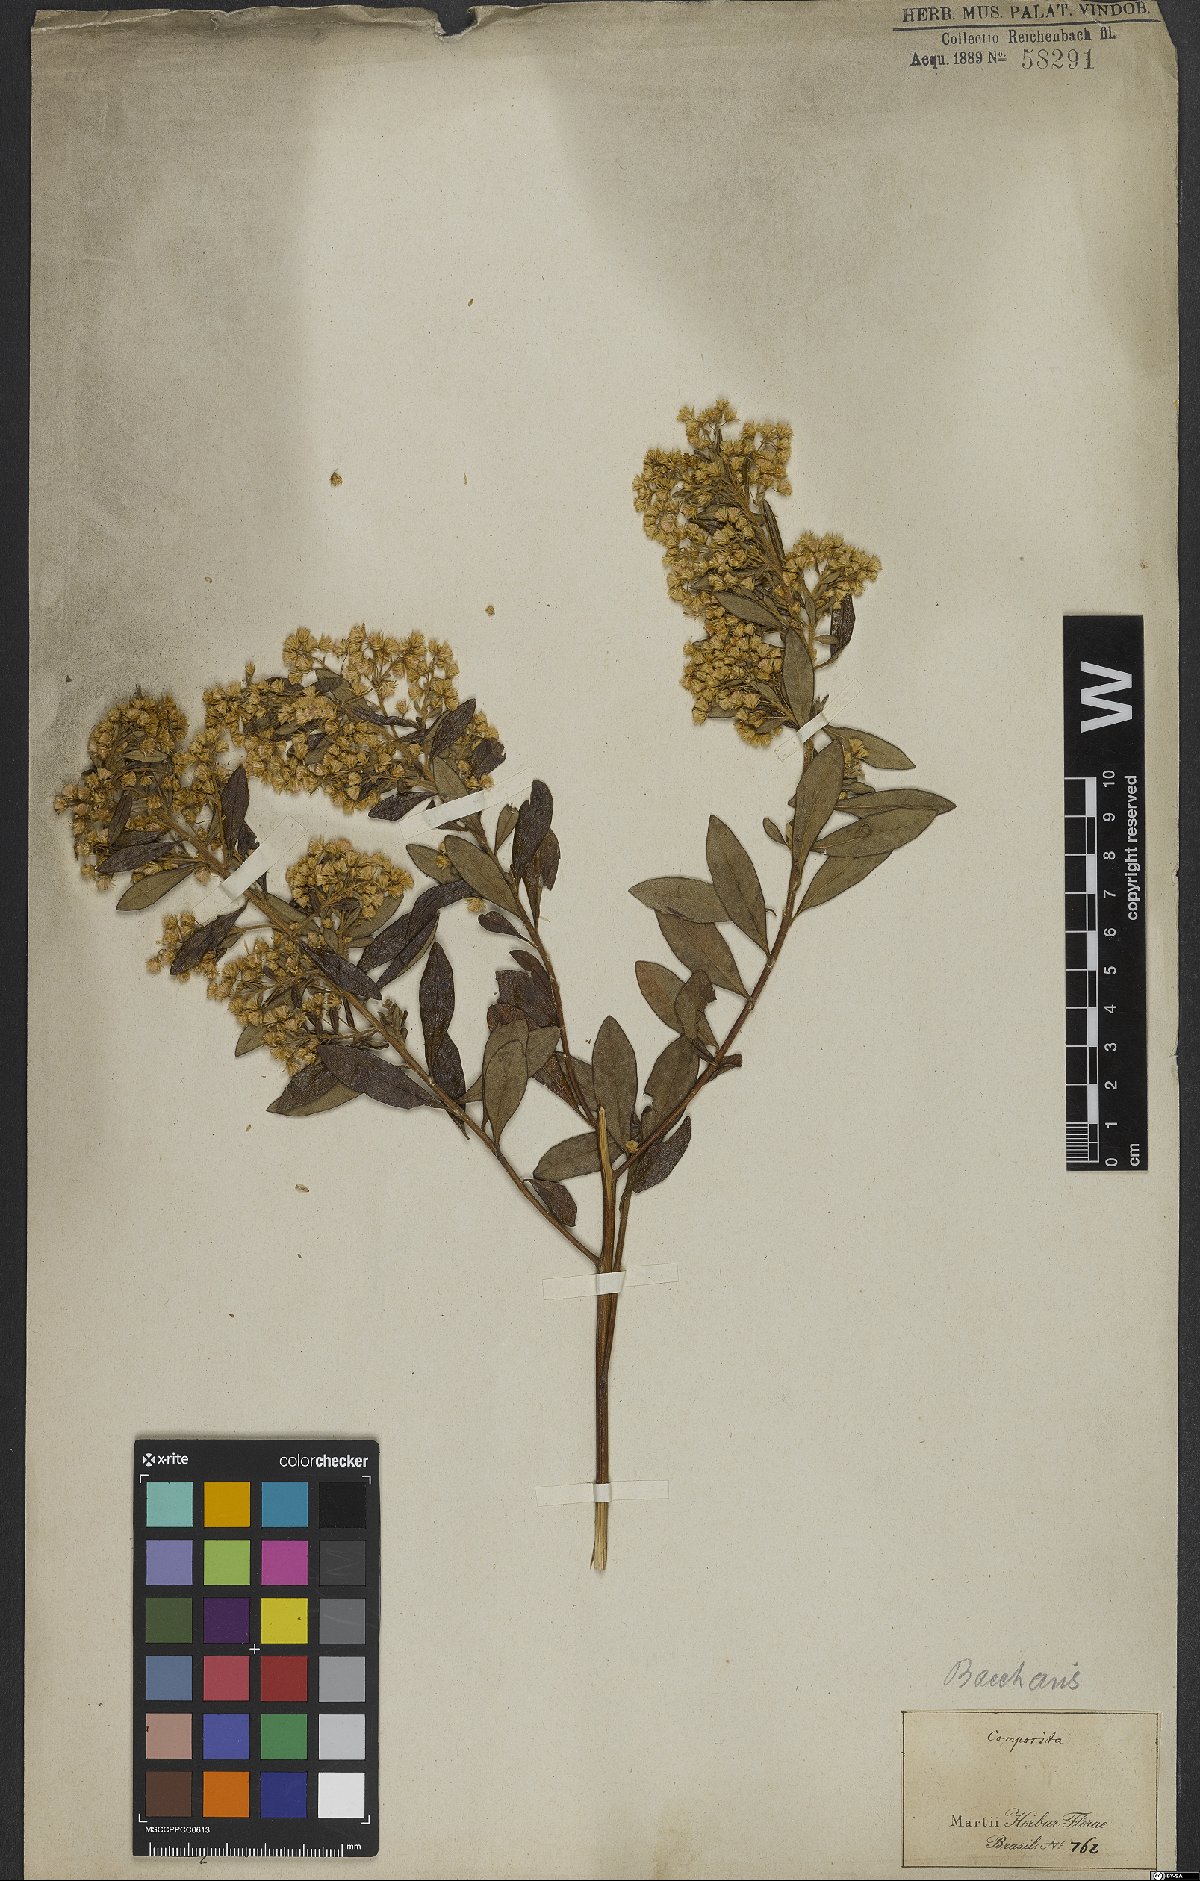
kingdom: Plantae
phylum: Tracheophyta
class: Magnoliopsida
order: Asterales
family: Asteraceae
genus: Baccharis
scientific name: Baccharis
